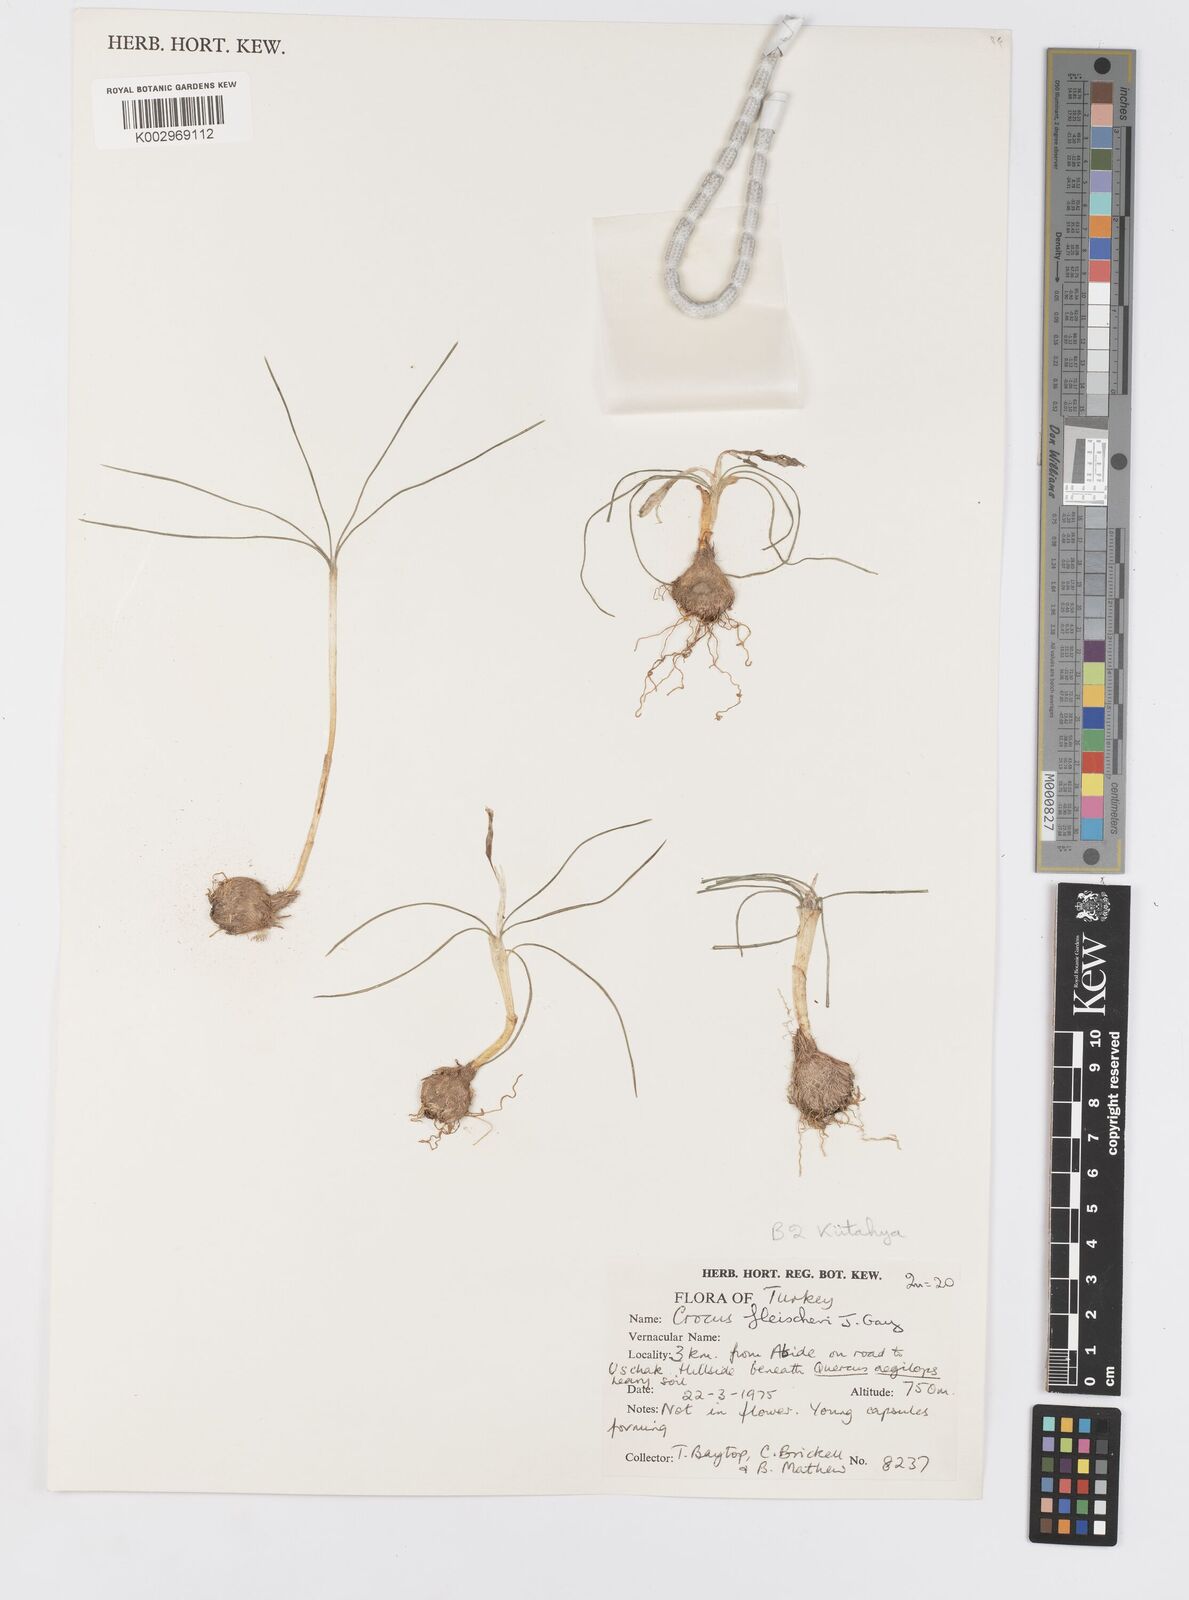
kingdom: Plantae
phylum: Tracheophyta
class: Liliopsida
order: Asparagales
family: Iridaceae
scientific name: Iridaceae
